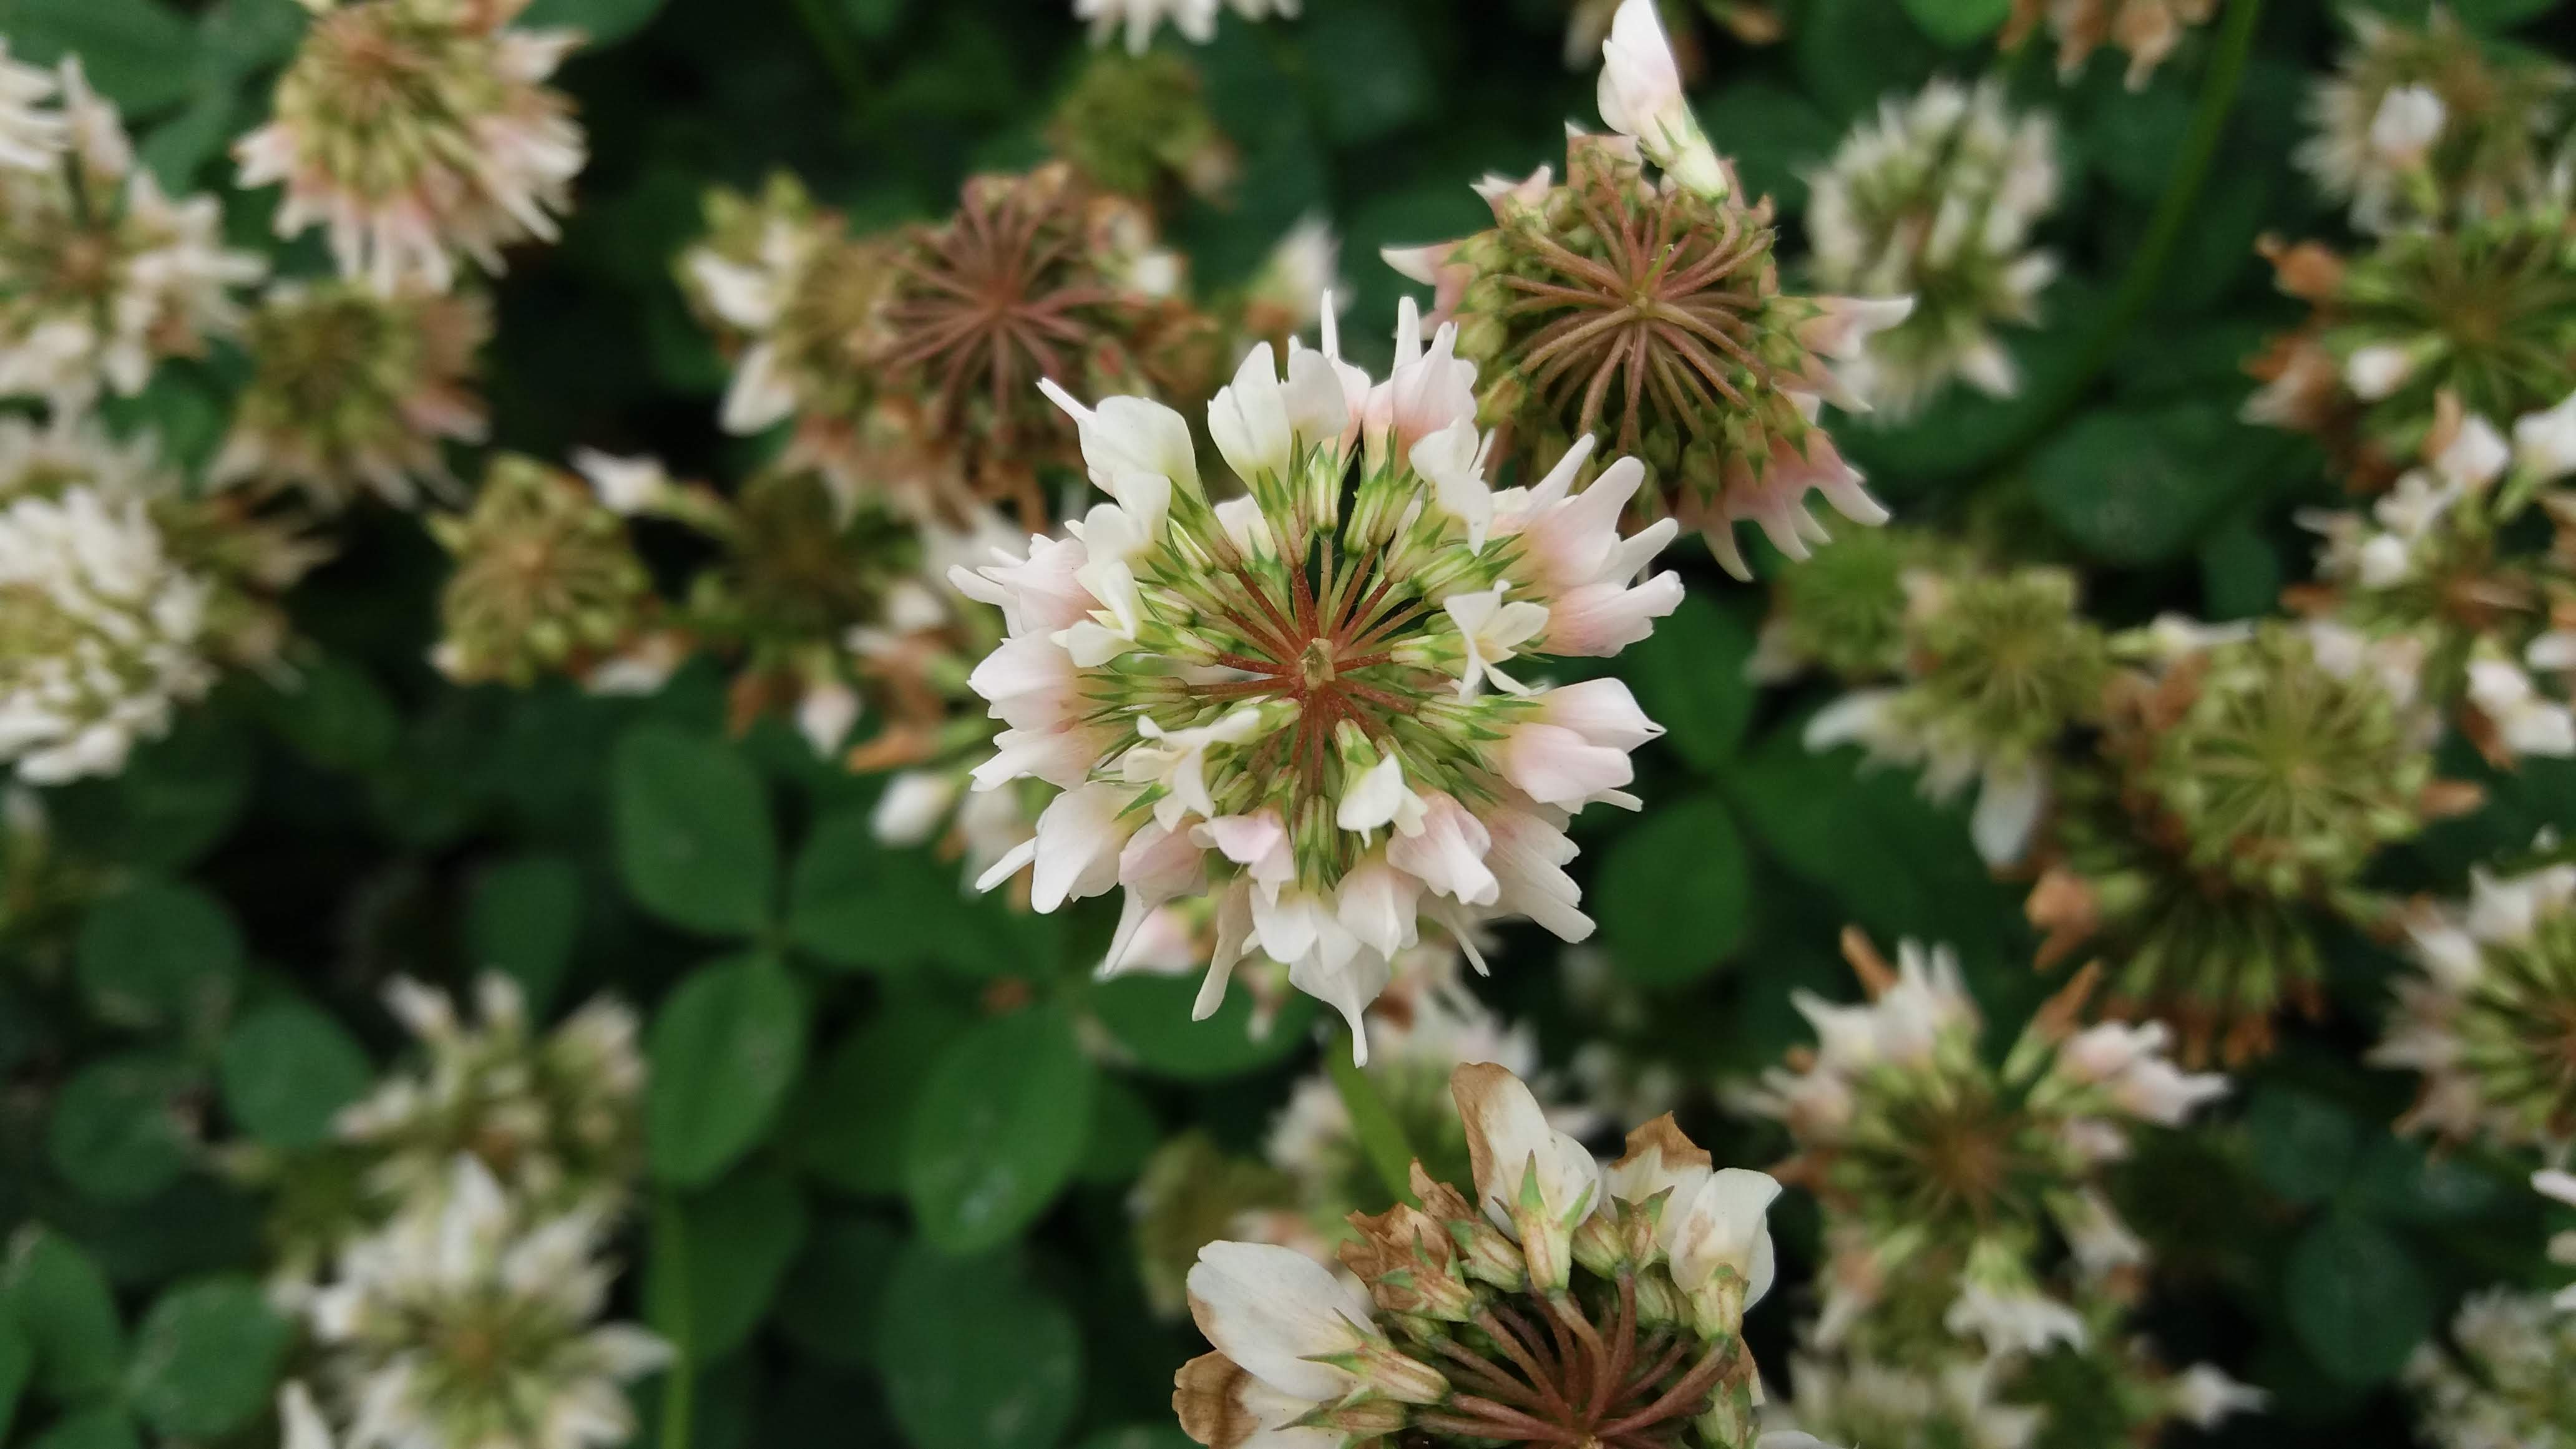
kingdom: Plantae
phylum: Tracheophyta
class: Magnoliopsida
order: Fabales
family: Fabaceae
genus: Trifolium
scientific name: Trifolium repens
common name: White clover
